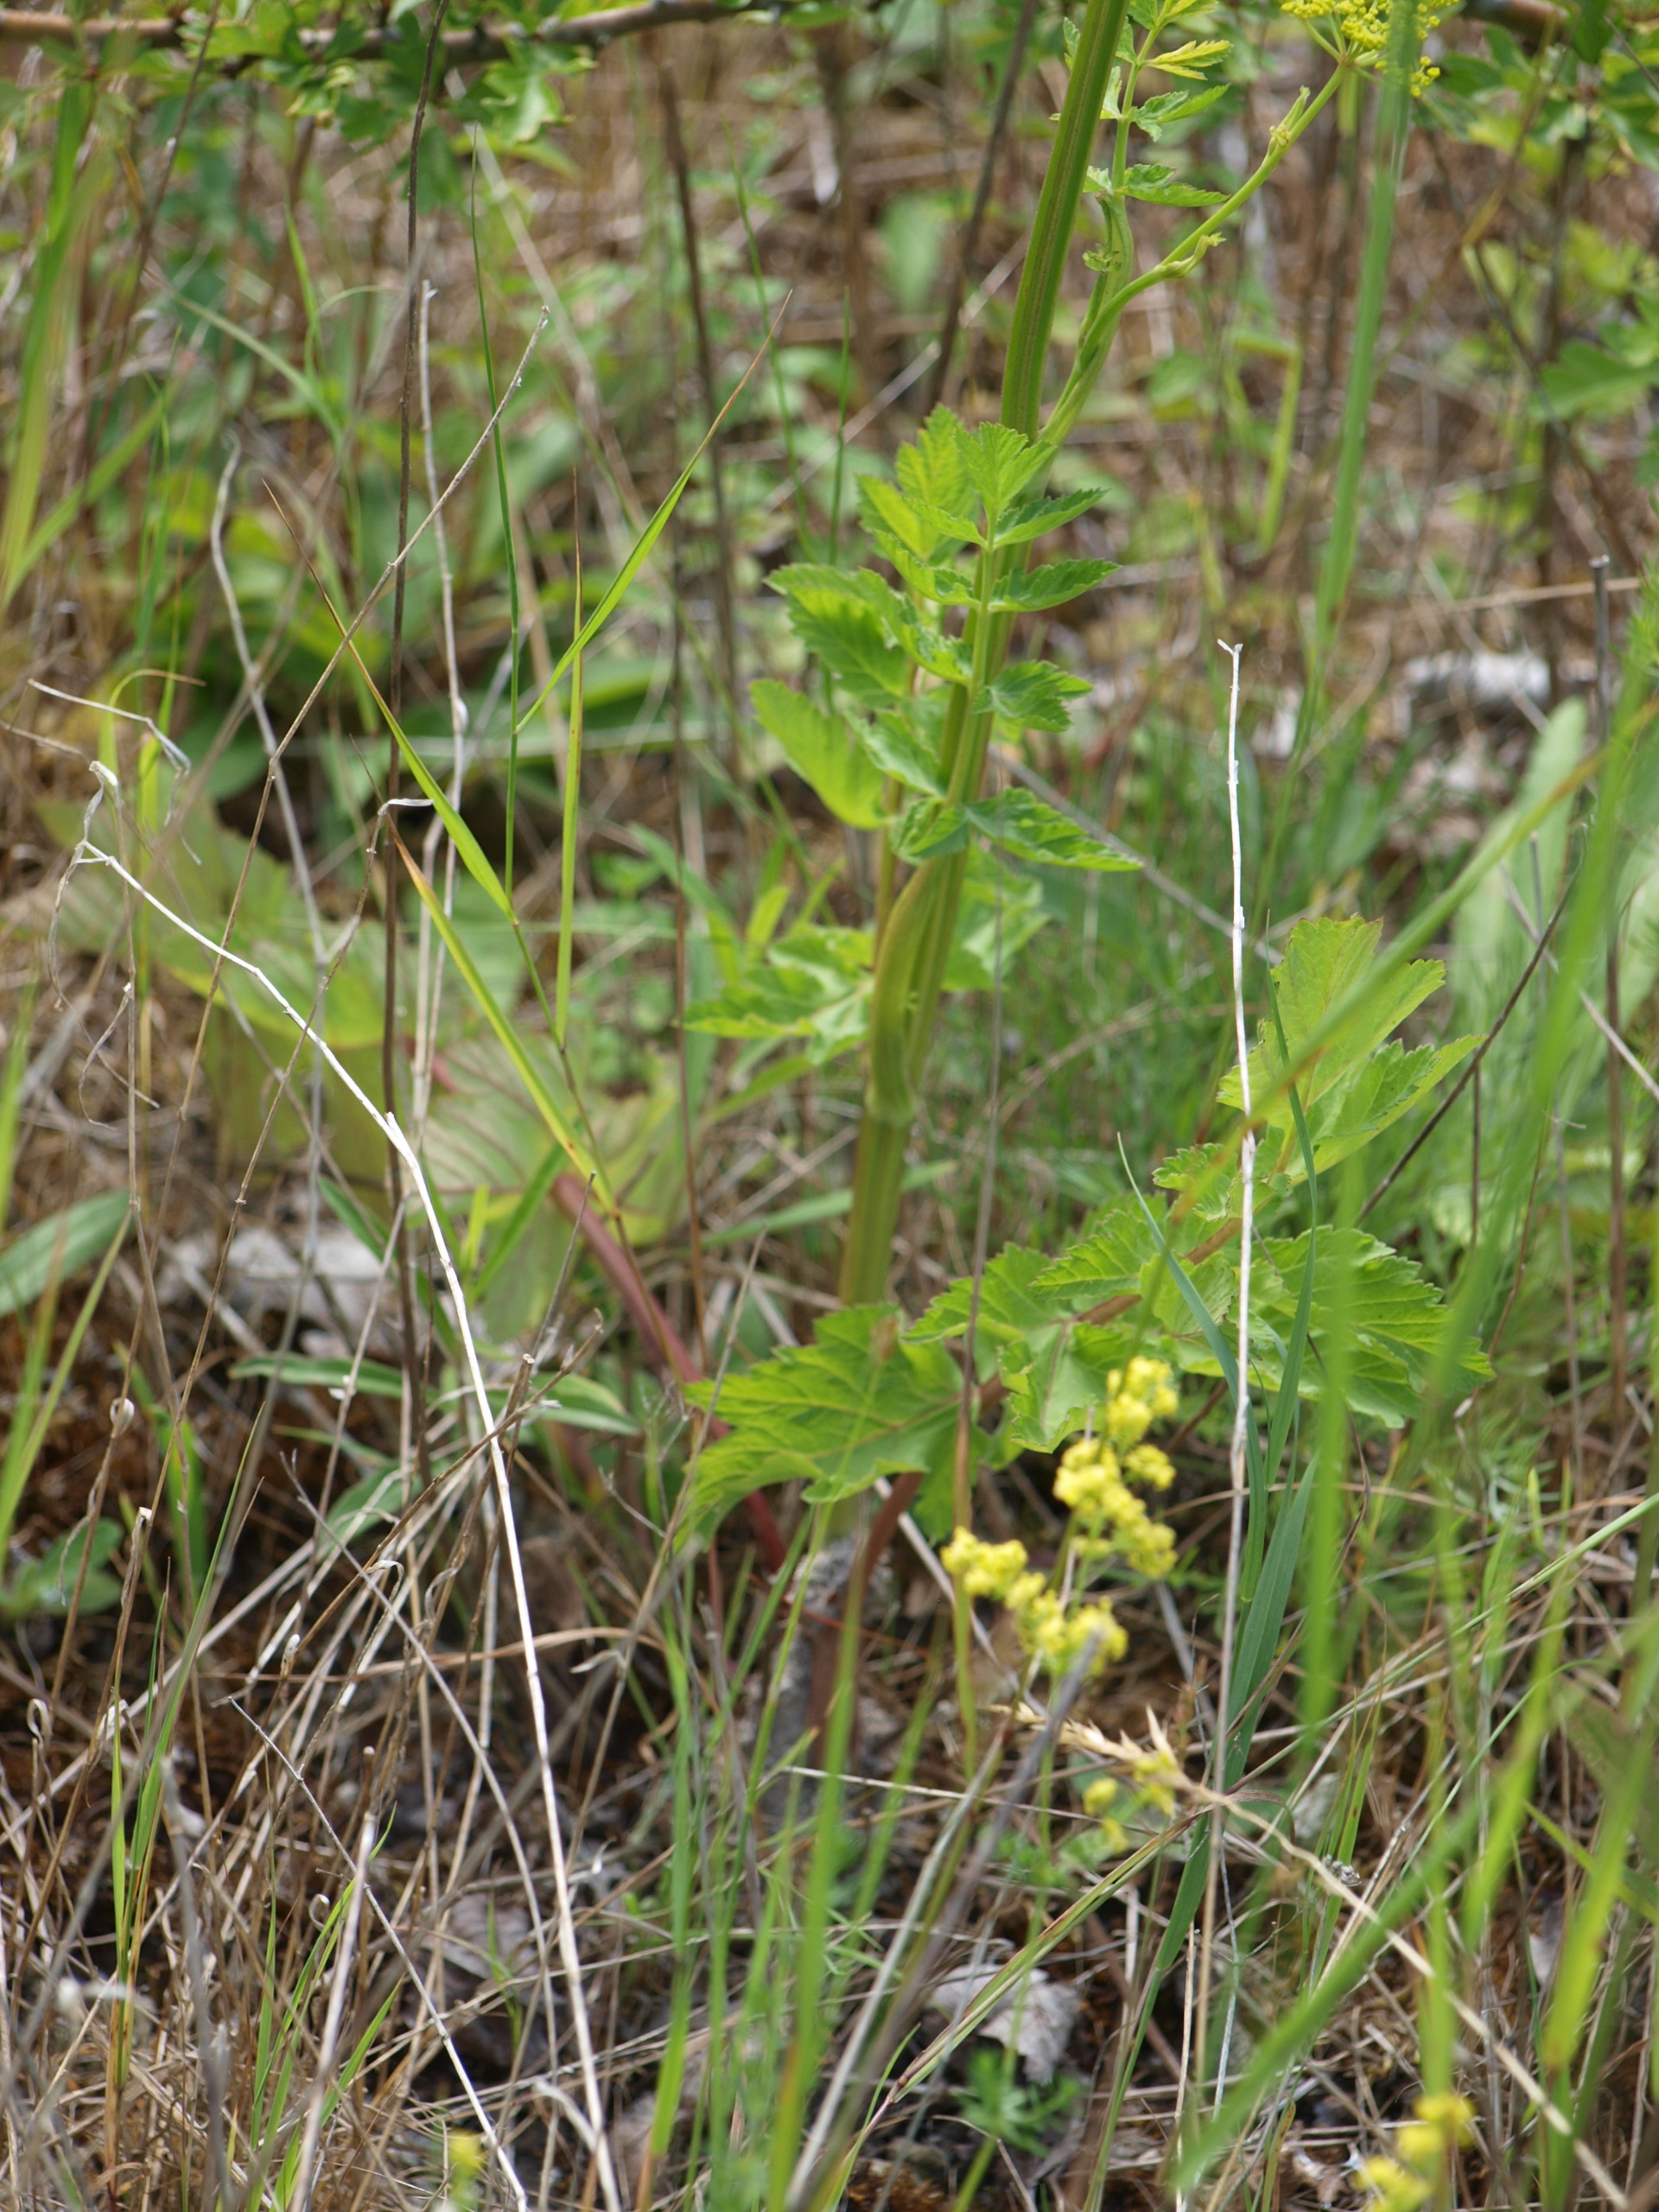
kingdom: Plantae
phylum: Tracheophyta
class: Magnoliopsida
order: Apiales
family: Apiaceae
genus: Pastinaca
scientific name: Pastinaca sativa
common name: Pastinak
